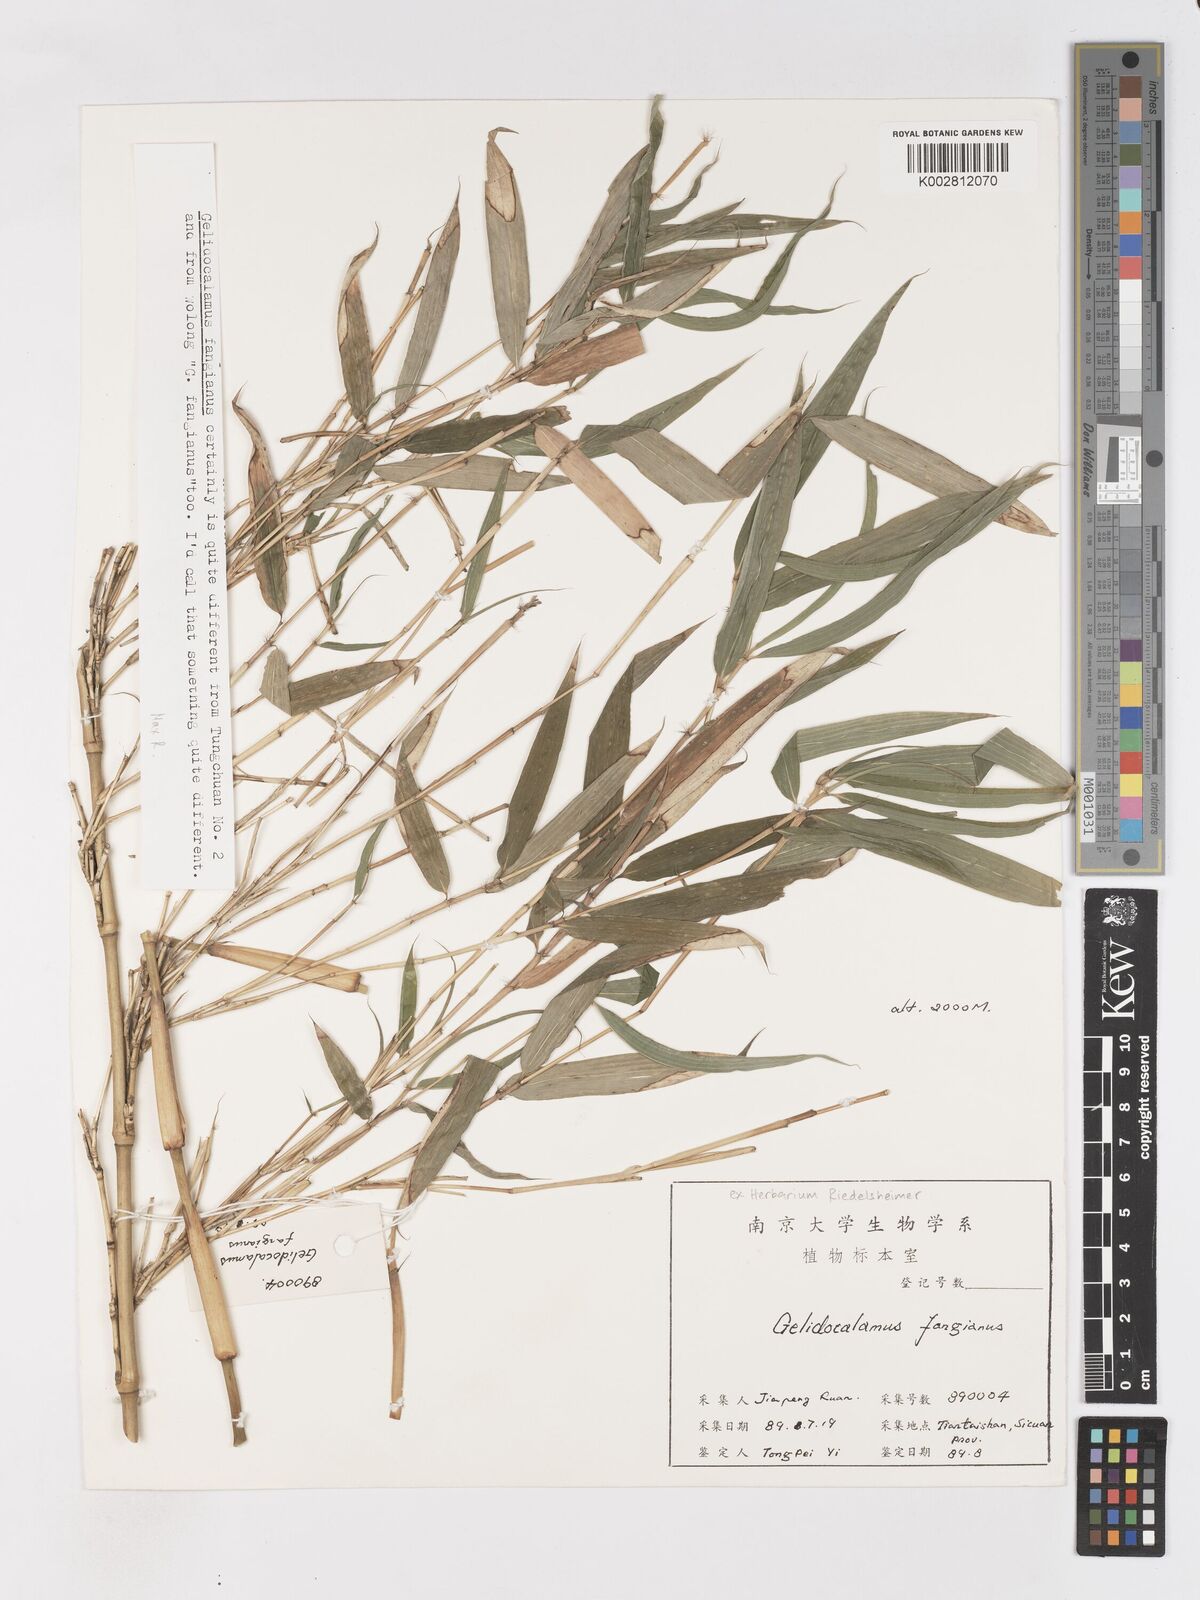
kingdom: Plantae
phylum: Tracheophyta
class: Liliopsida
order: Poales
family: Poaceae
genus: Sarocalamus
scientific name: Sarocalamus faberi
